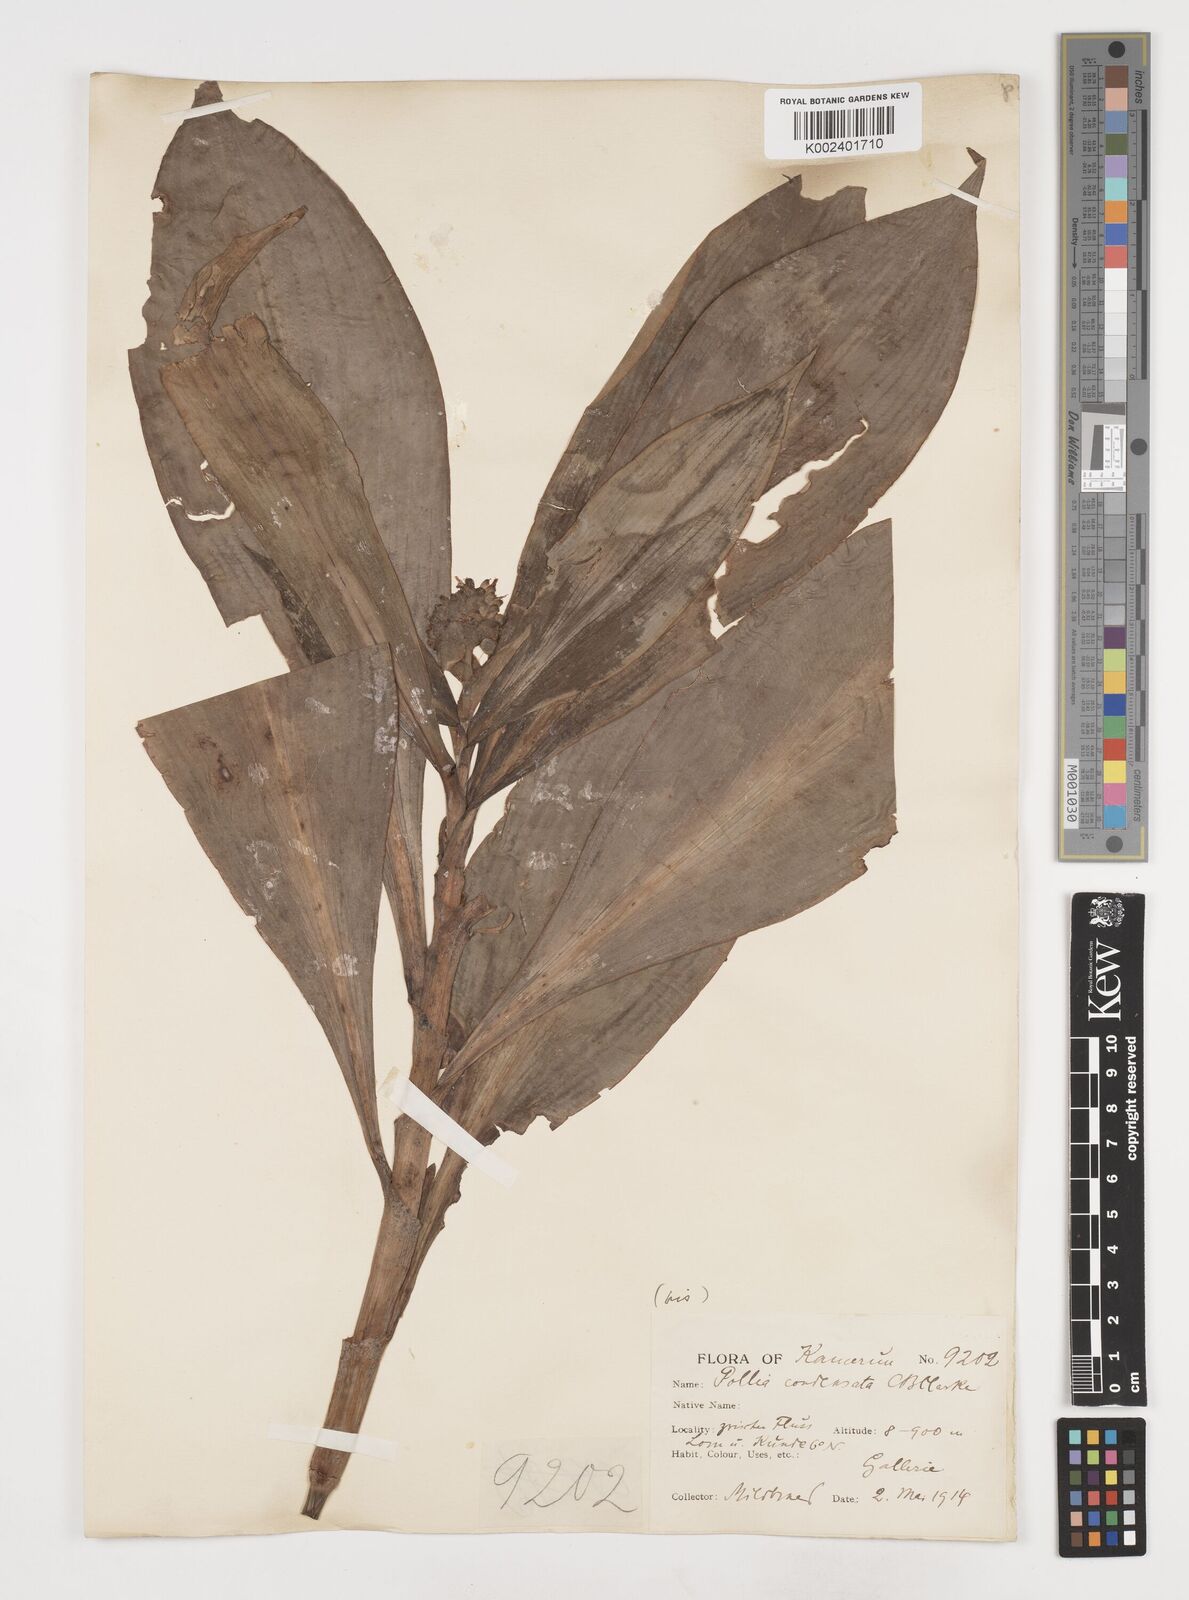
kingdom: Plantae
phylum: Tracheophyta
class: Liliopsida
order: Commelinales
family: Commelinaceae
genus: Pollia
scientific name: Pollia condensata
